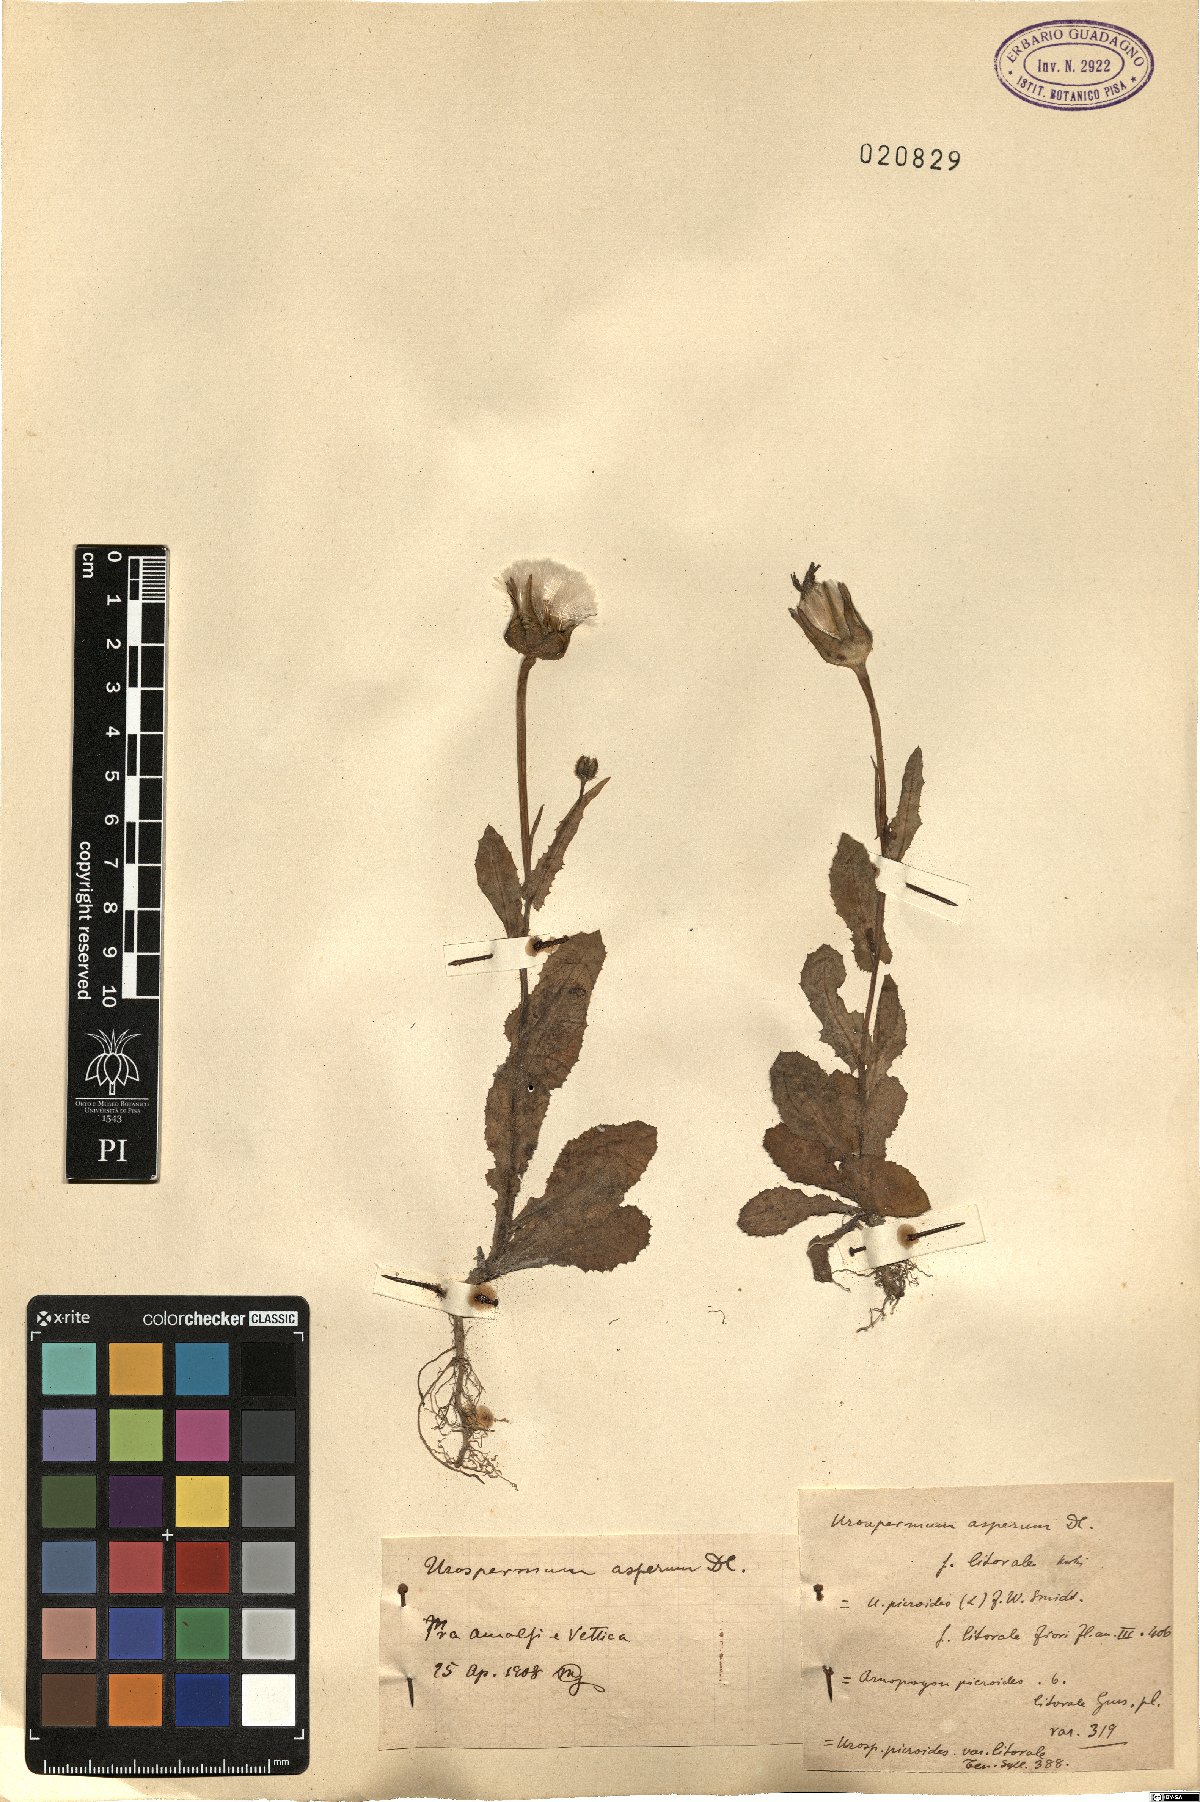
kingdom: Plantae
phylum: Tracheophyta
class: Magnoliopsida
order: Asterales
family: Asteraceae
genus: Urospermum
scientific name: Urospermum picroides
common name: False hawkbit
